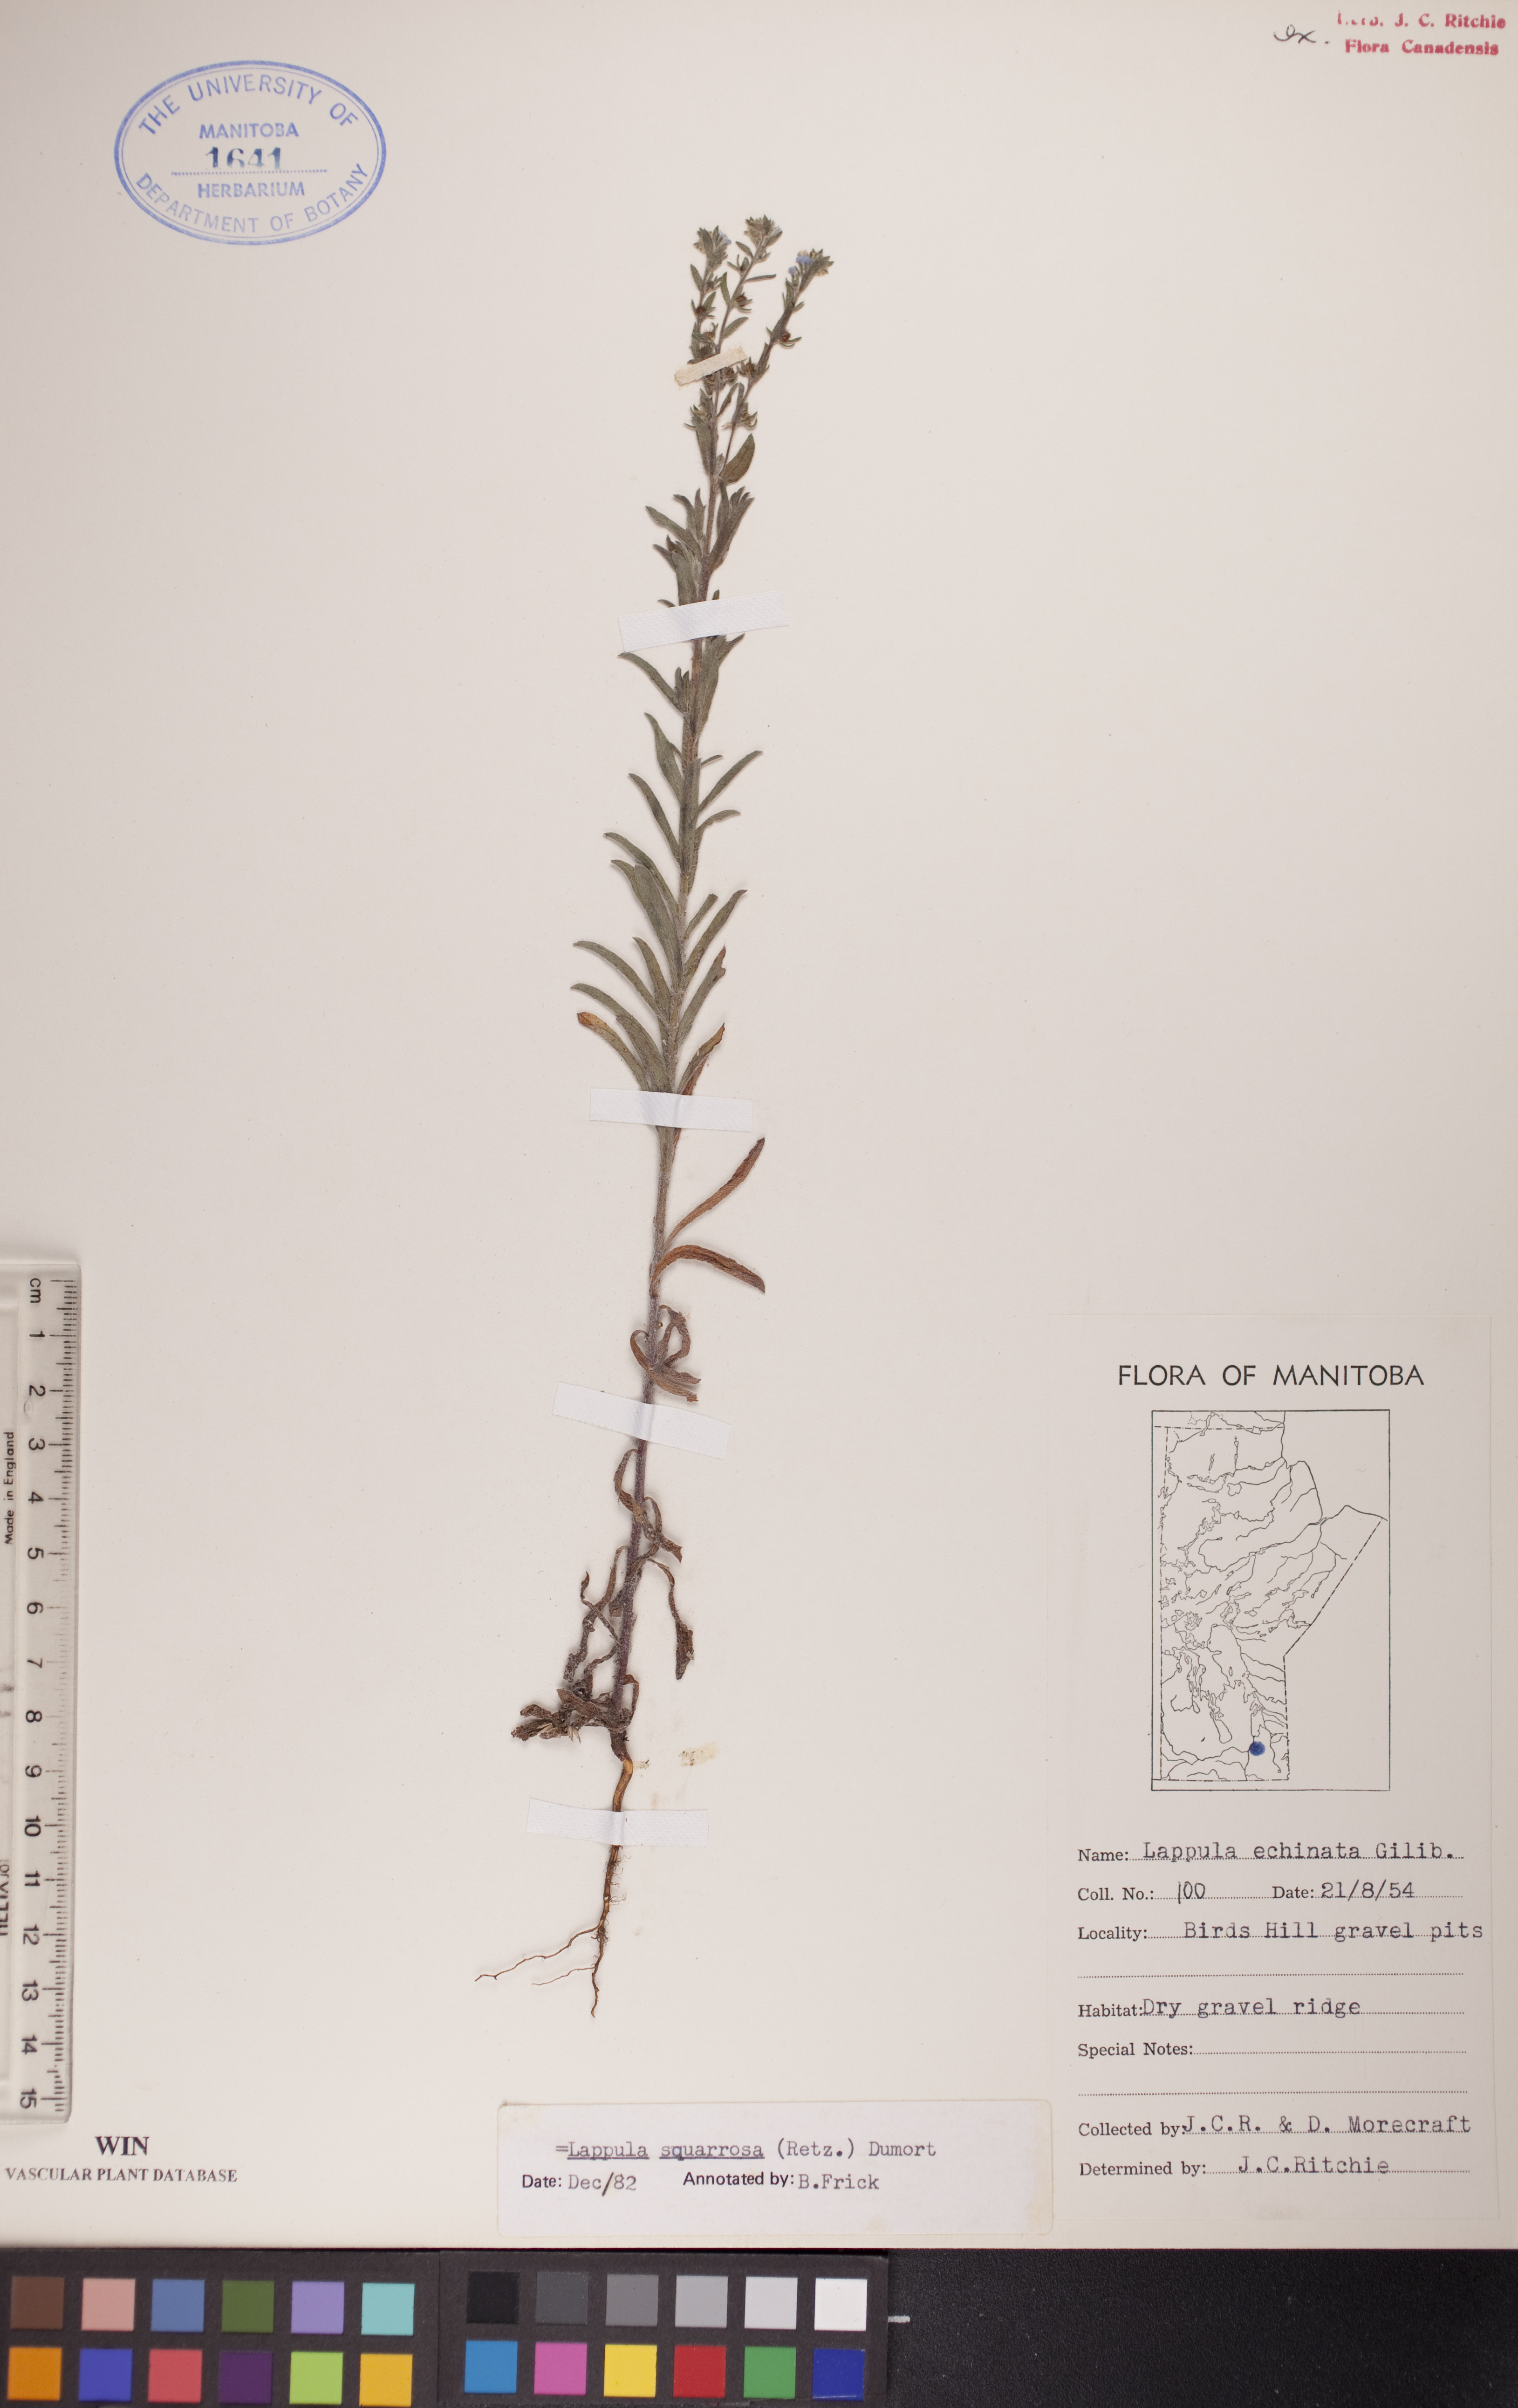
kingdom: Plantae
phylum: Tracheophyta
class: Magnoliopsida
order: Boraginales
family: Boraginaceae
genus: Lappula
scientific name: Lappula squarrosa
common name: European stickseed
